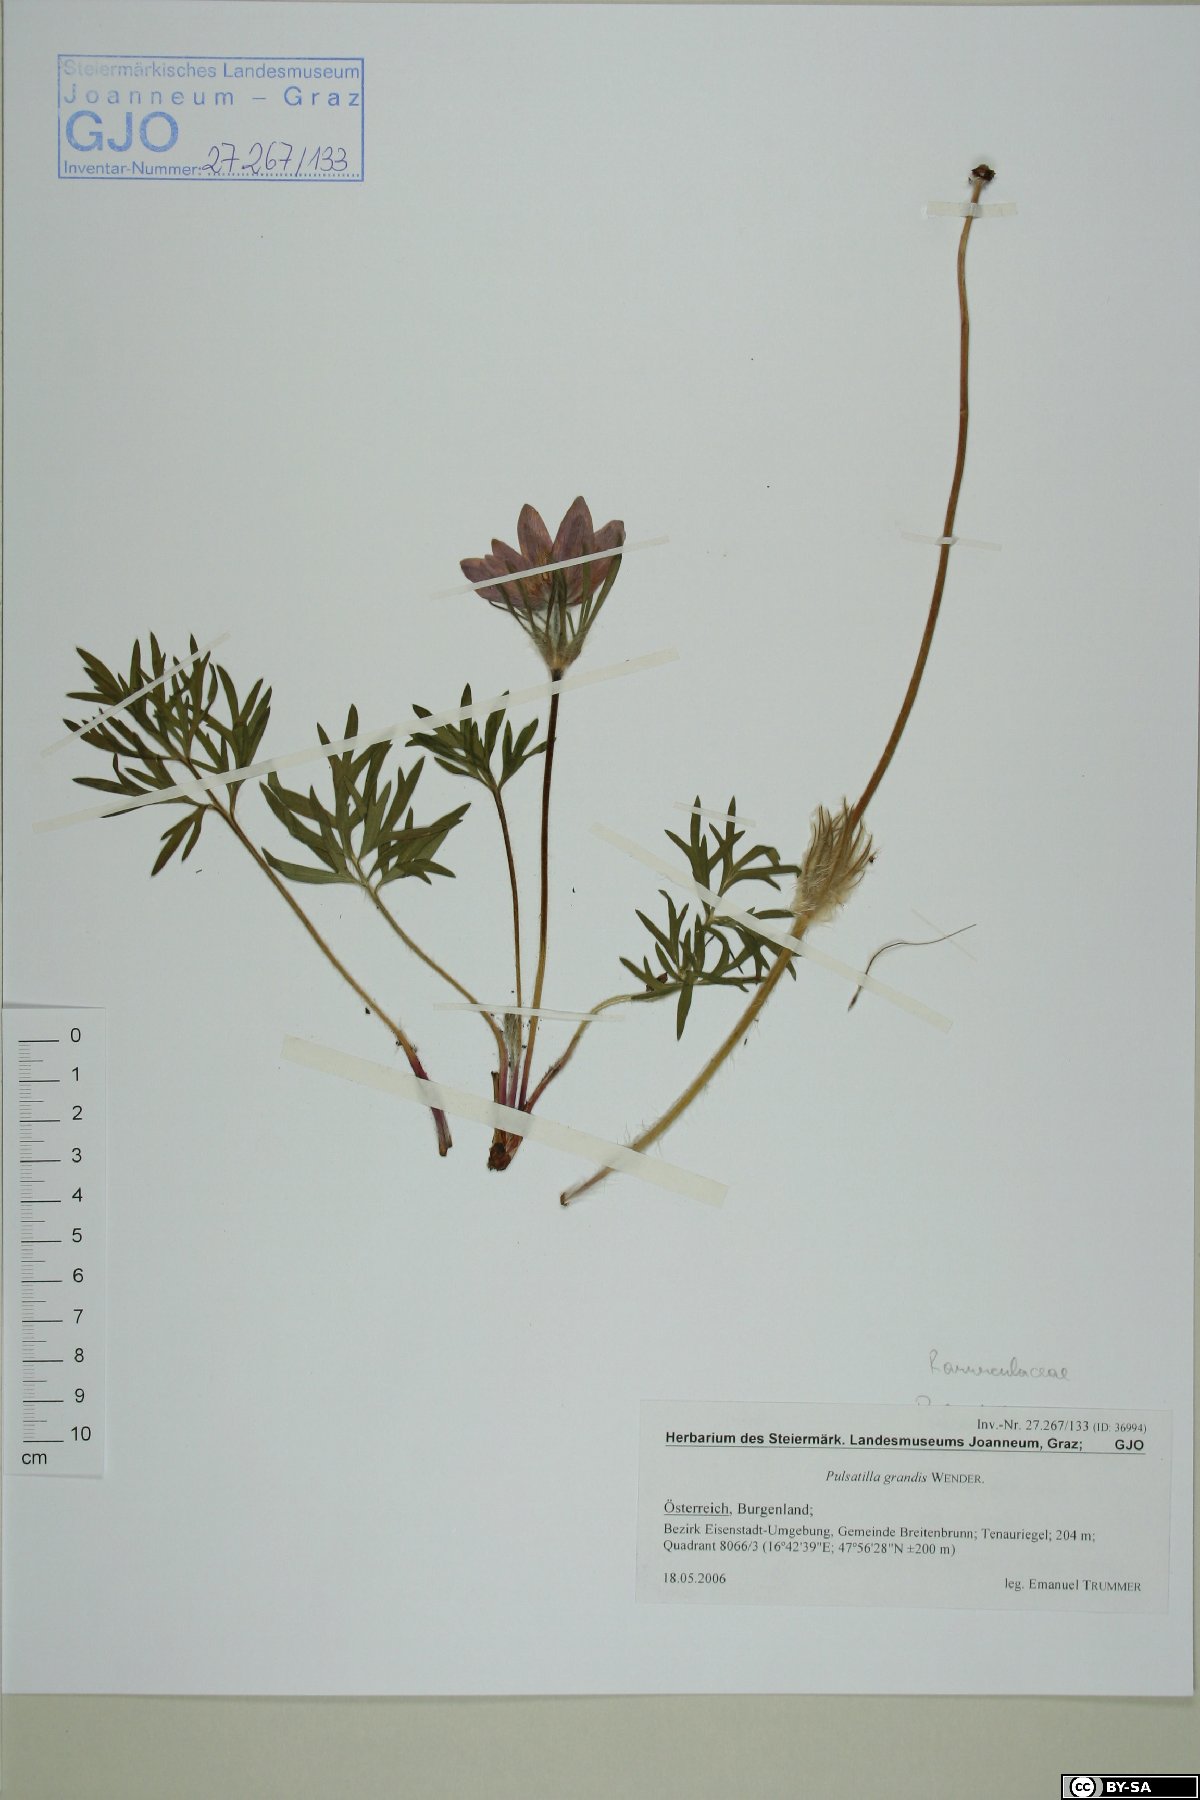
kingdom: Plantae
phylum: Tracheophyta
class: Magnoliopsida
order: Ranunculales
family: Ranunculaceae
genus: Pulsatilla
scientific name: Pulsatilla grandis
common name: Greater pasque flower
